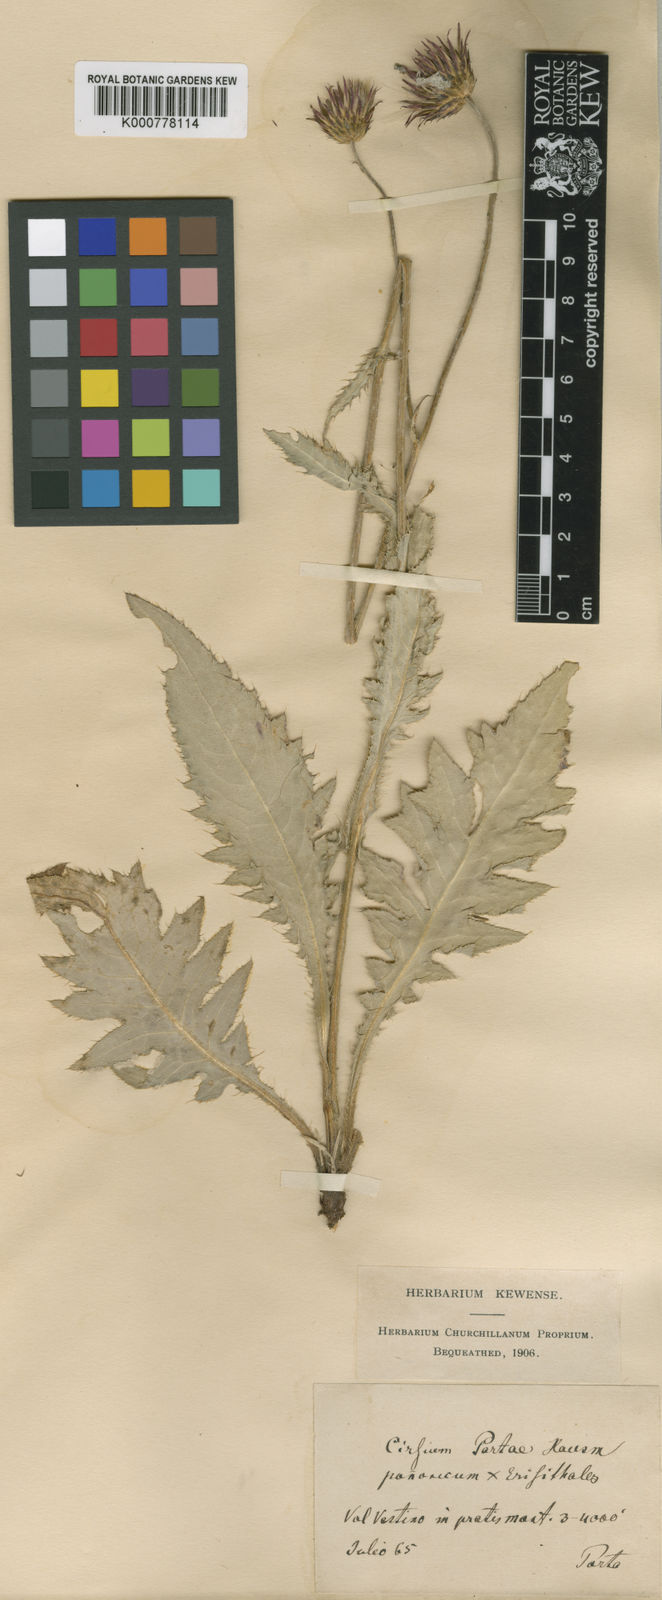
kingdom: Plantae
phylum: Tracheophyta
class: Magnoliopsida
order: Asterales
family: Asteraceae
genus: Cirsium
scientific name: Cirsium pannonicum
